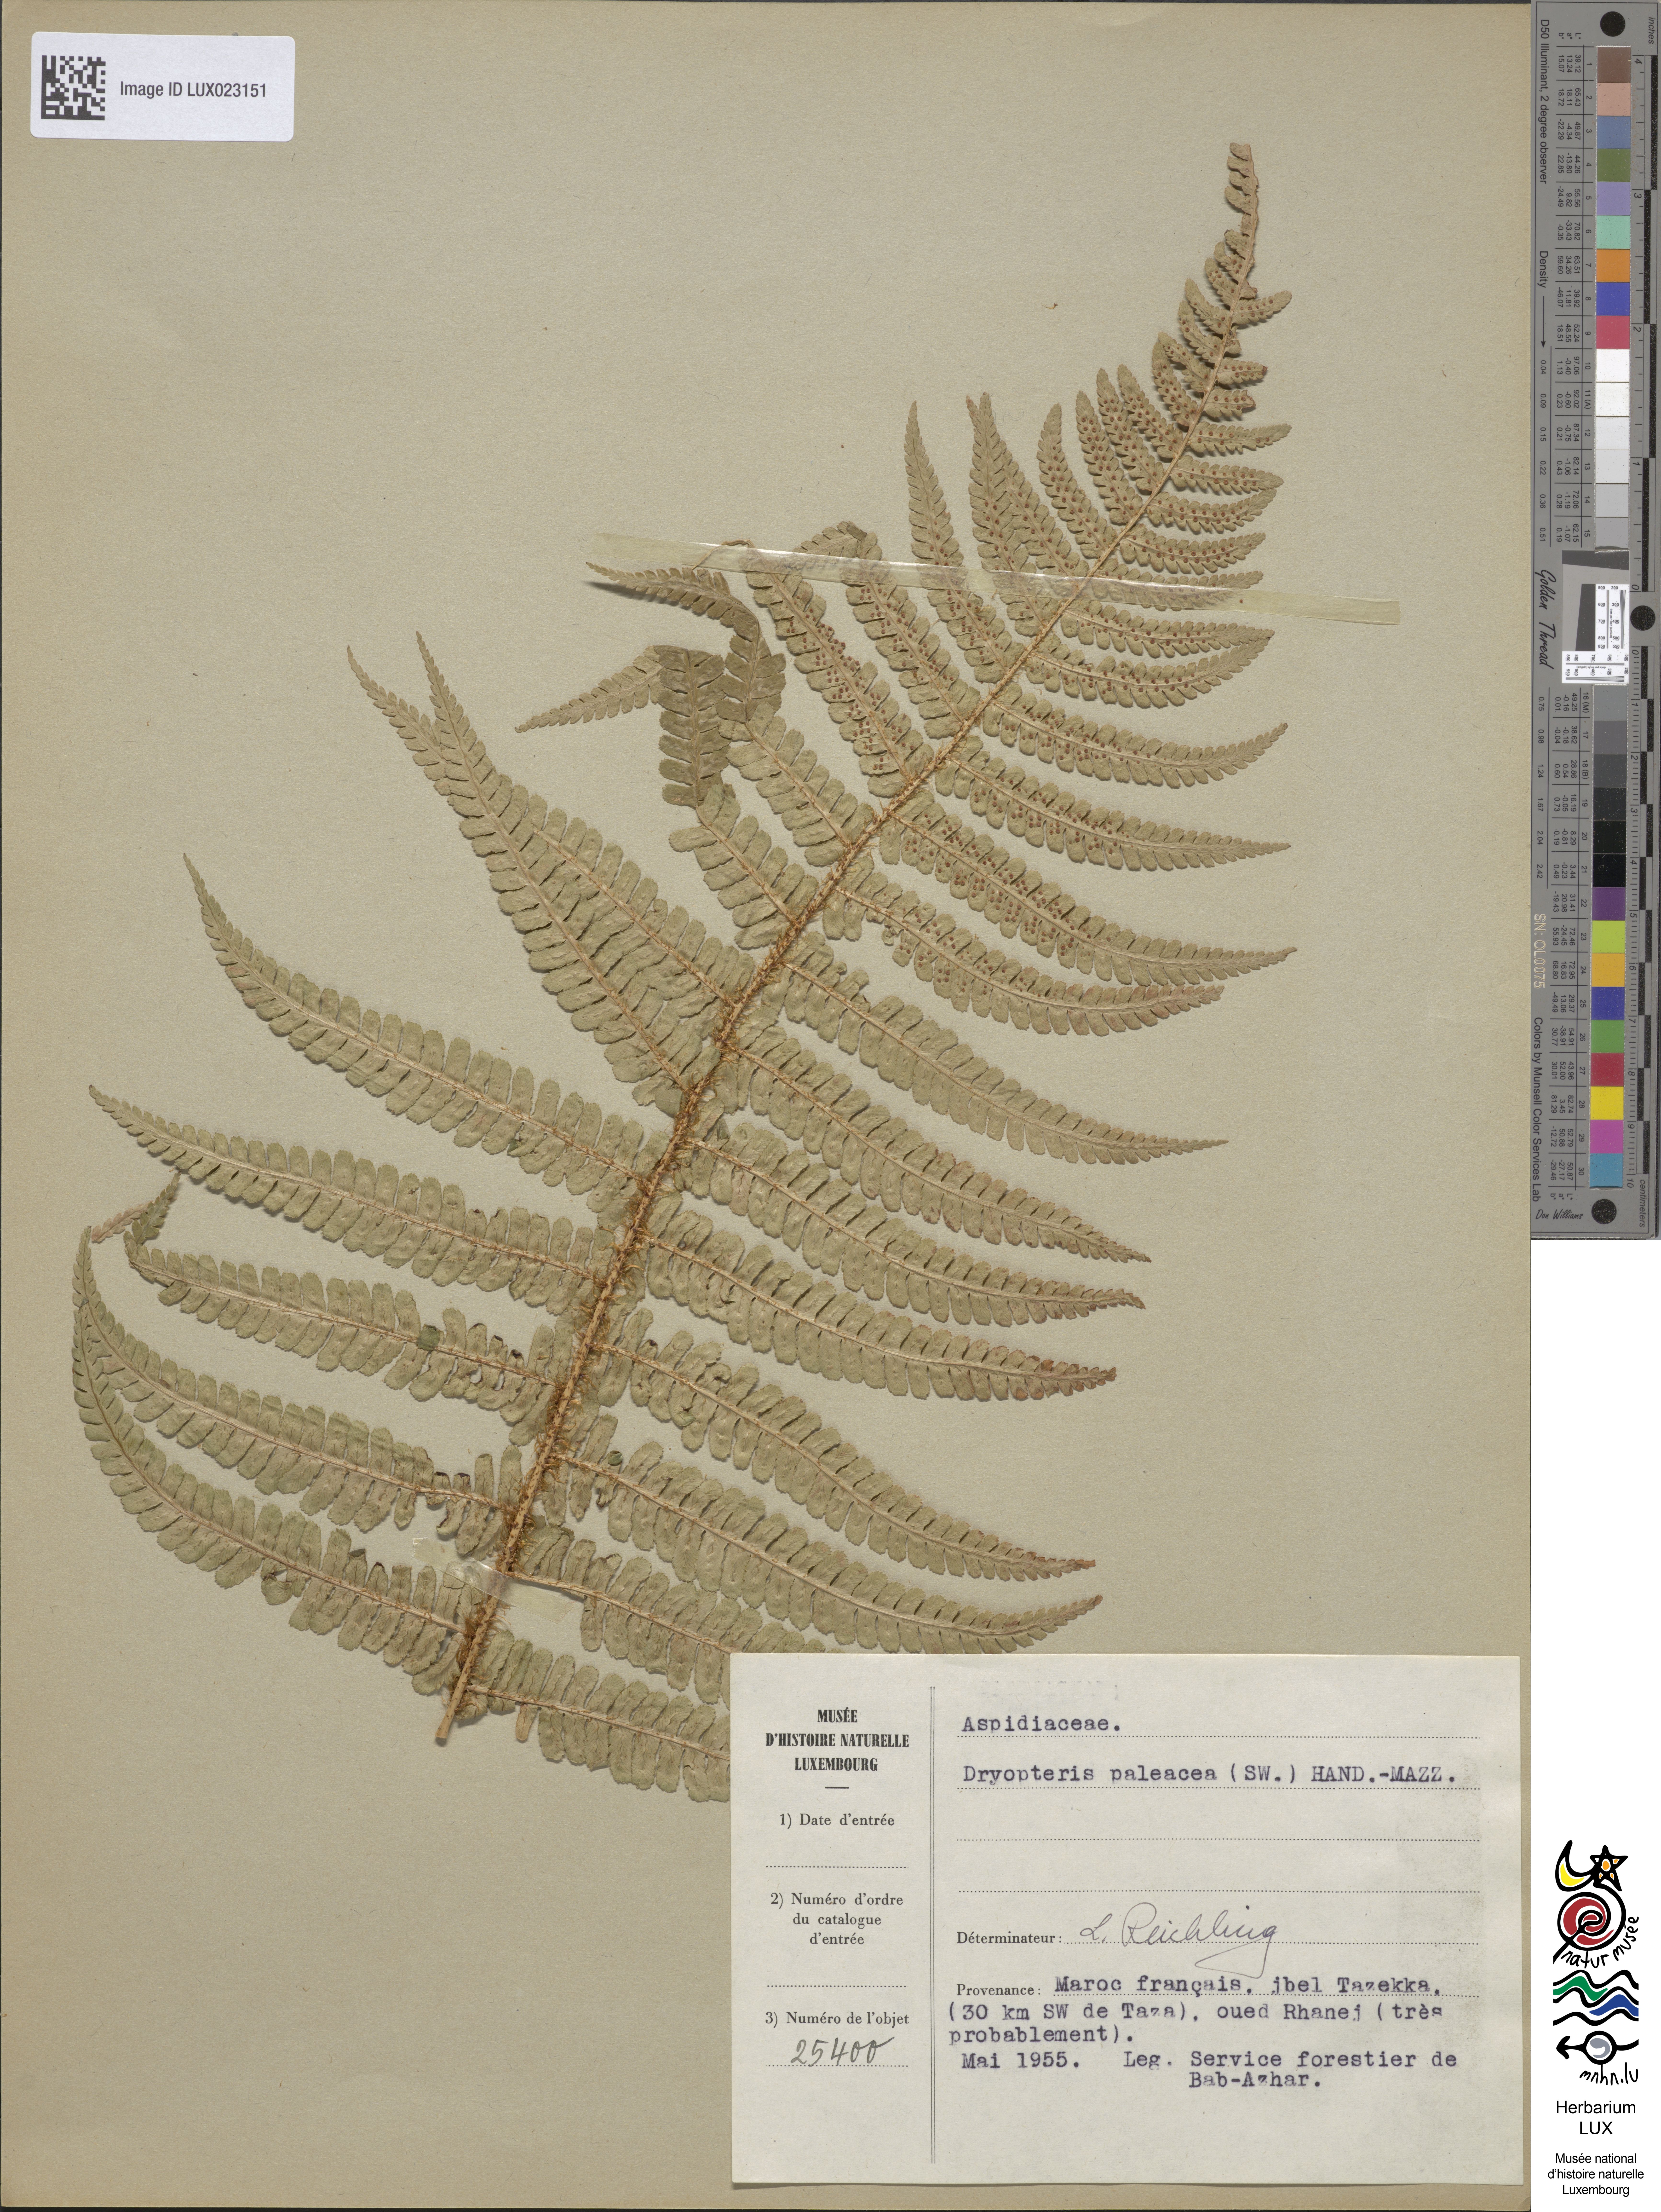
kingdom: Plantae
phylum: Tracheophyta
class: Polypodiopsida
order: Polypodiales
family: Dryopteridaceae
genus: Dryopteris
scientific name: Dryopteris borreri
